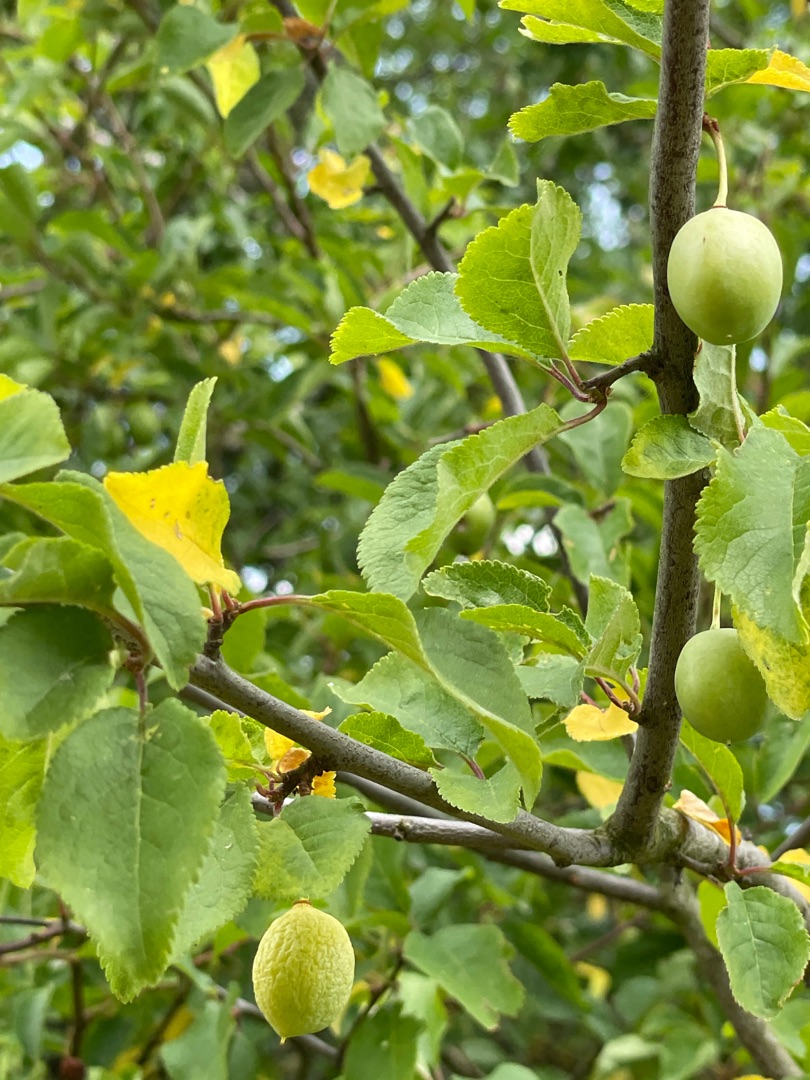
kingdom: Plantae
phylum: Tracheophyta
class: Magnoliopsida
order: Rosales
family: Rosaceae
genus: Prunus
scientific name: Prunus domestica
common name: Blomme
